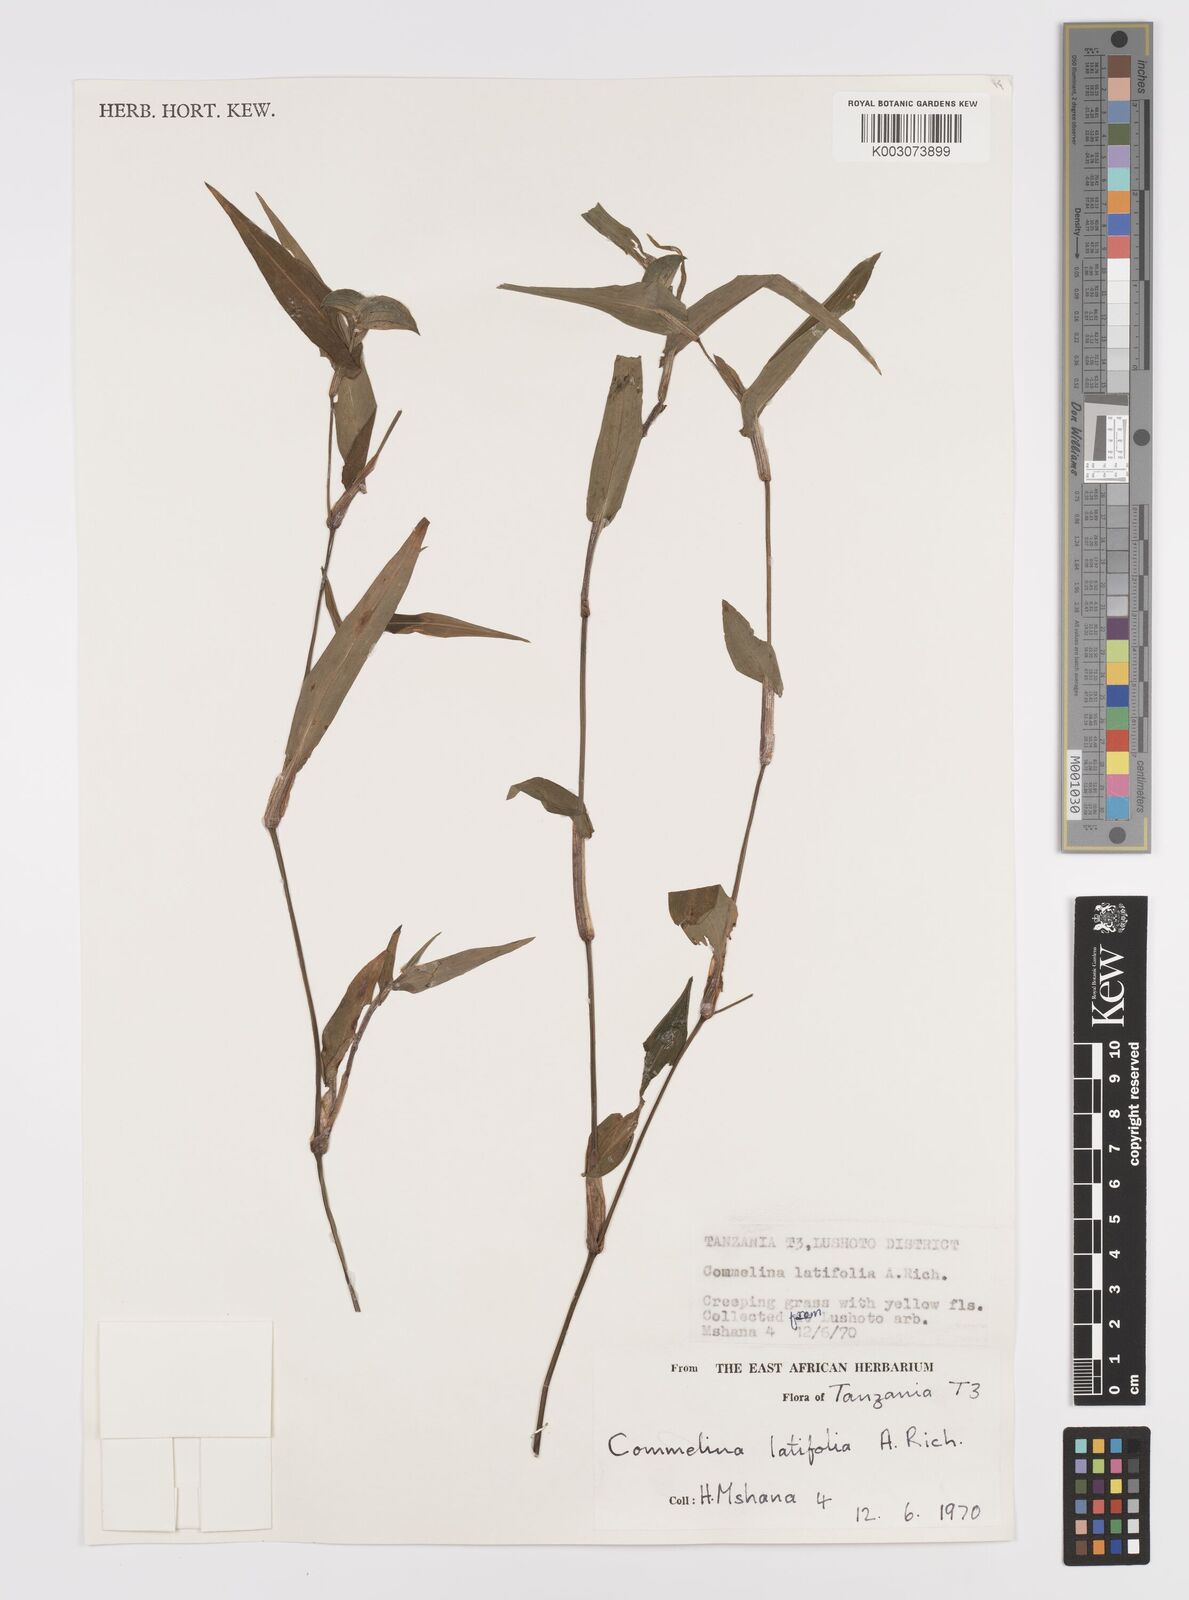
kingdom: Plantae
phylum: Tracheophyta
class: Liliopsida
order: Commelinales
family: Commelinaceae
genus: Commelina
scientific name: Commelina latifolia
